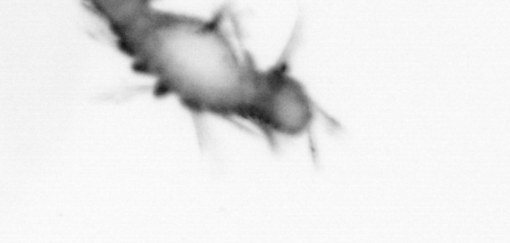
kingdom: Animalia
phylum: Annelida
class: Polychaeta
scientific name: Polychaeta
